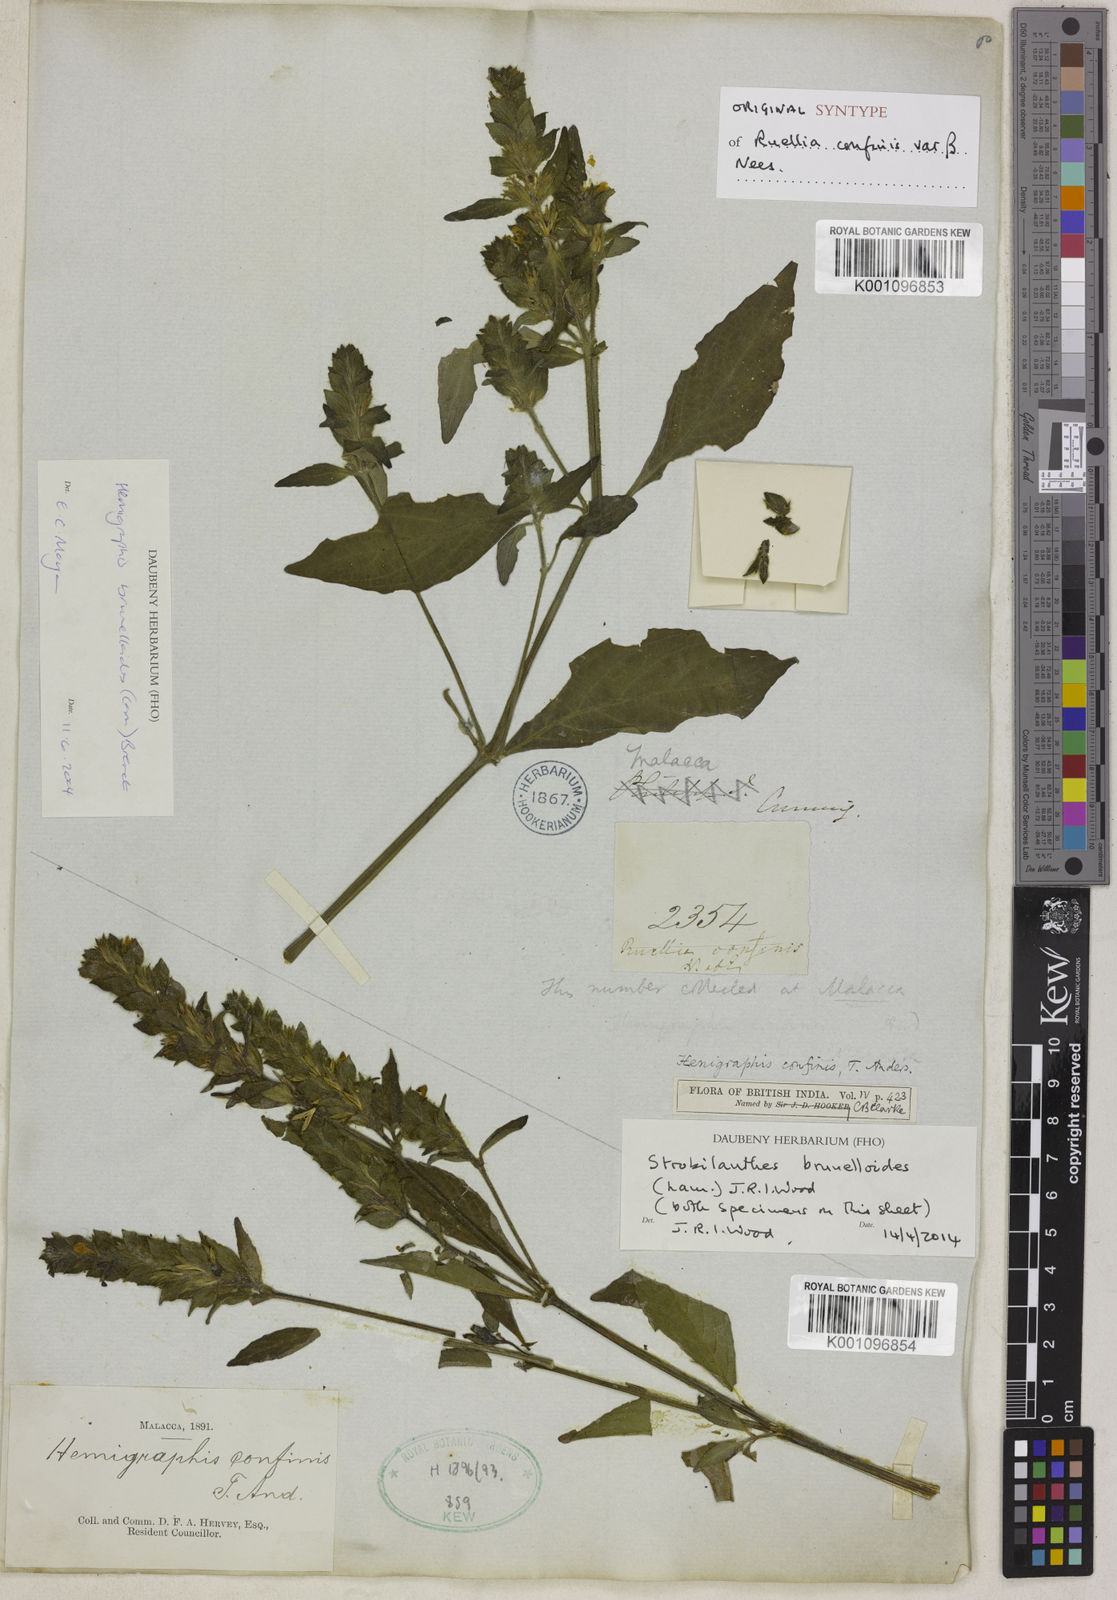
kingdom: Plantae
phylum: Tracheophyta
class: Magnoliopsida
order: Lamiales
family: Acanthaceae
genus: Strobilanthes
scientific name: Strobilanthes brunelloides
